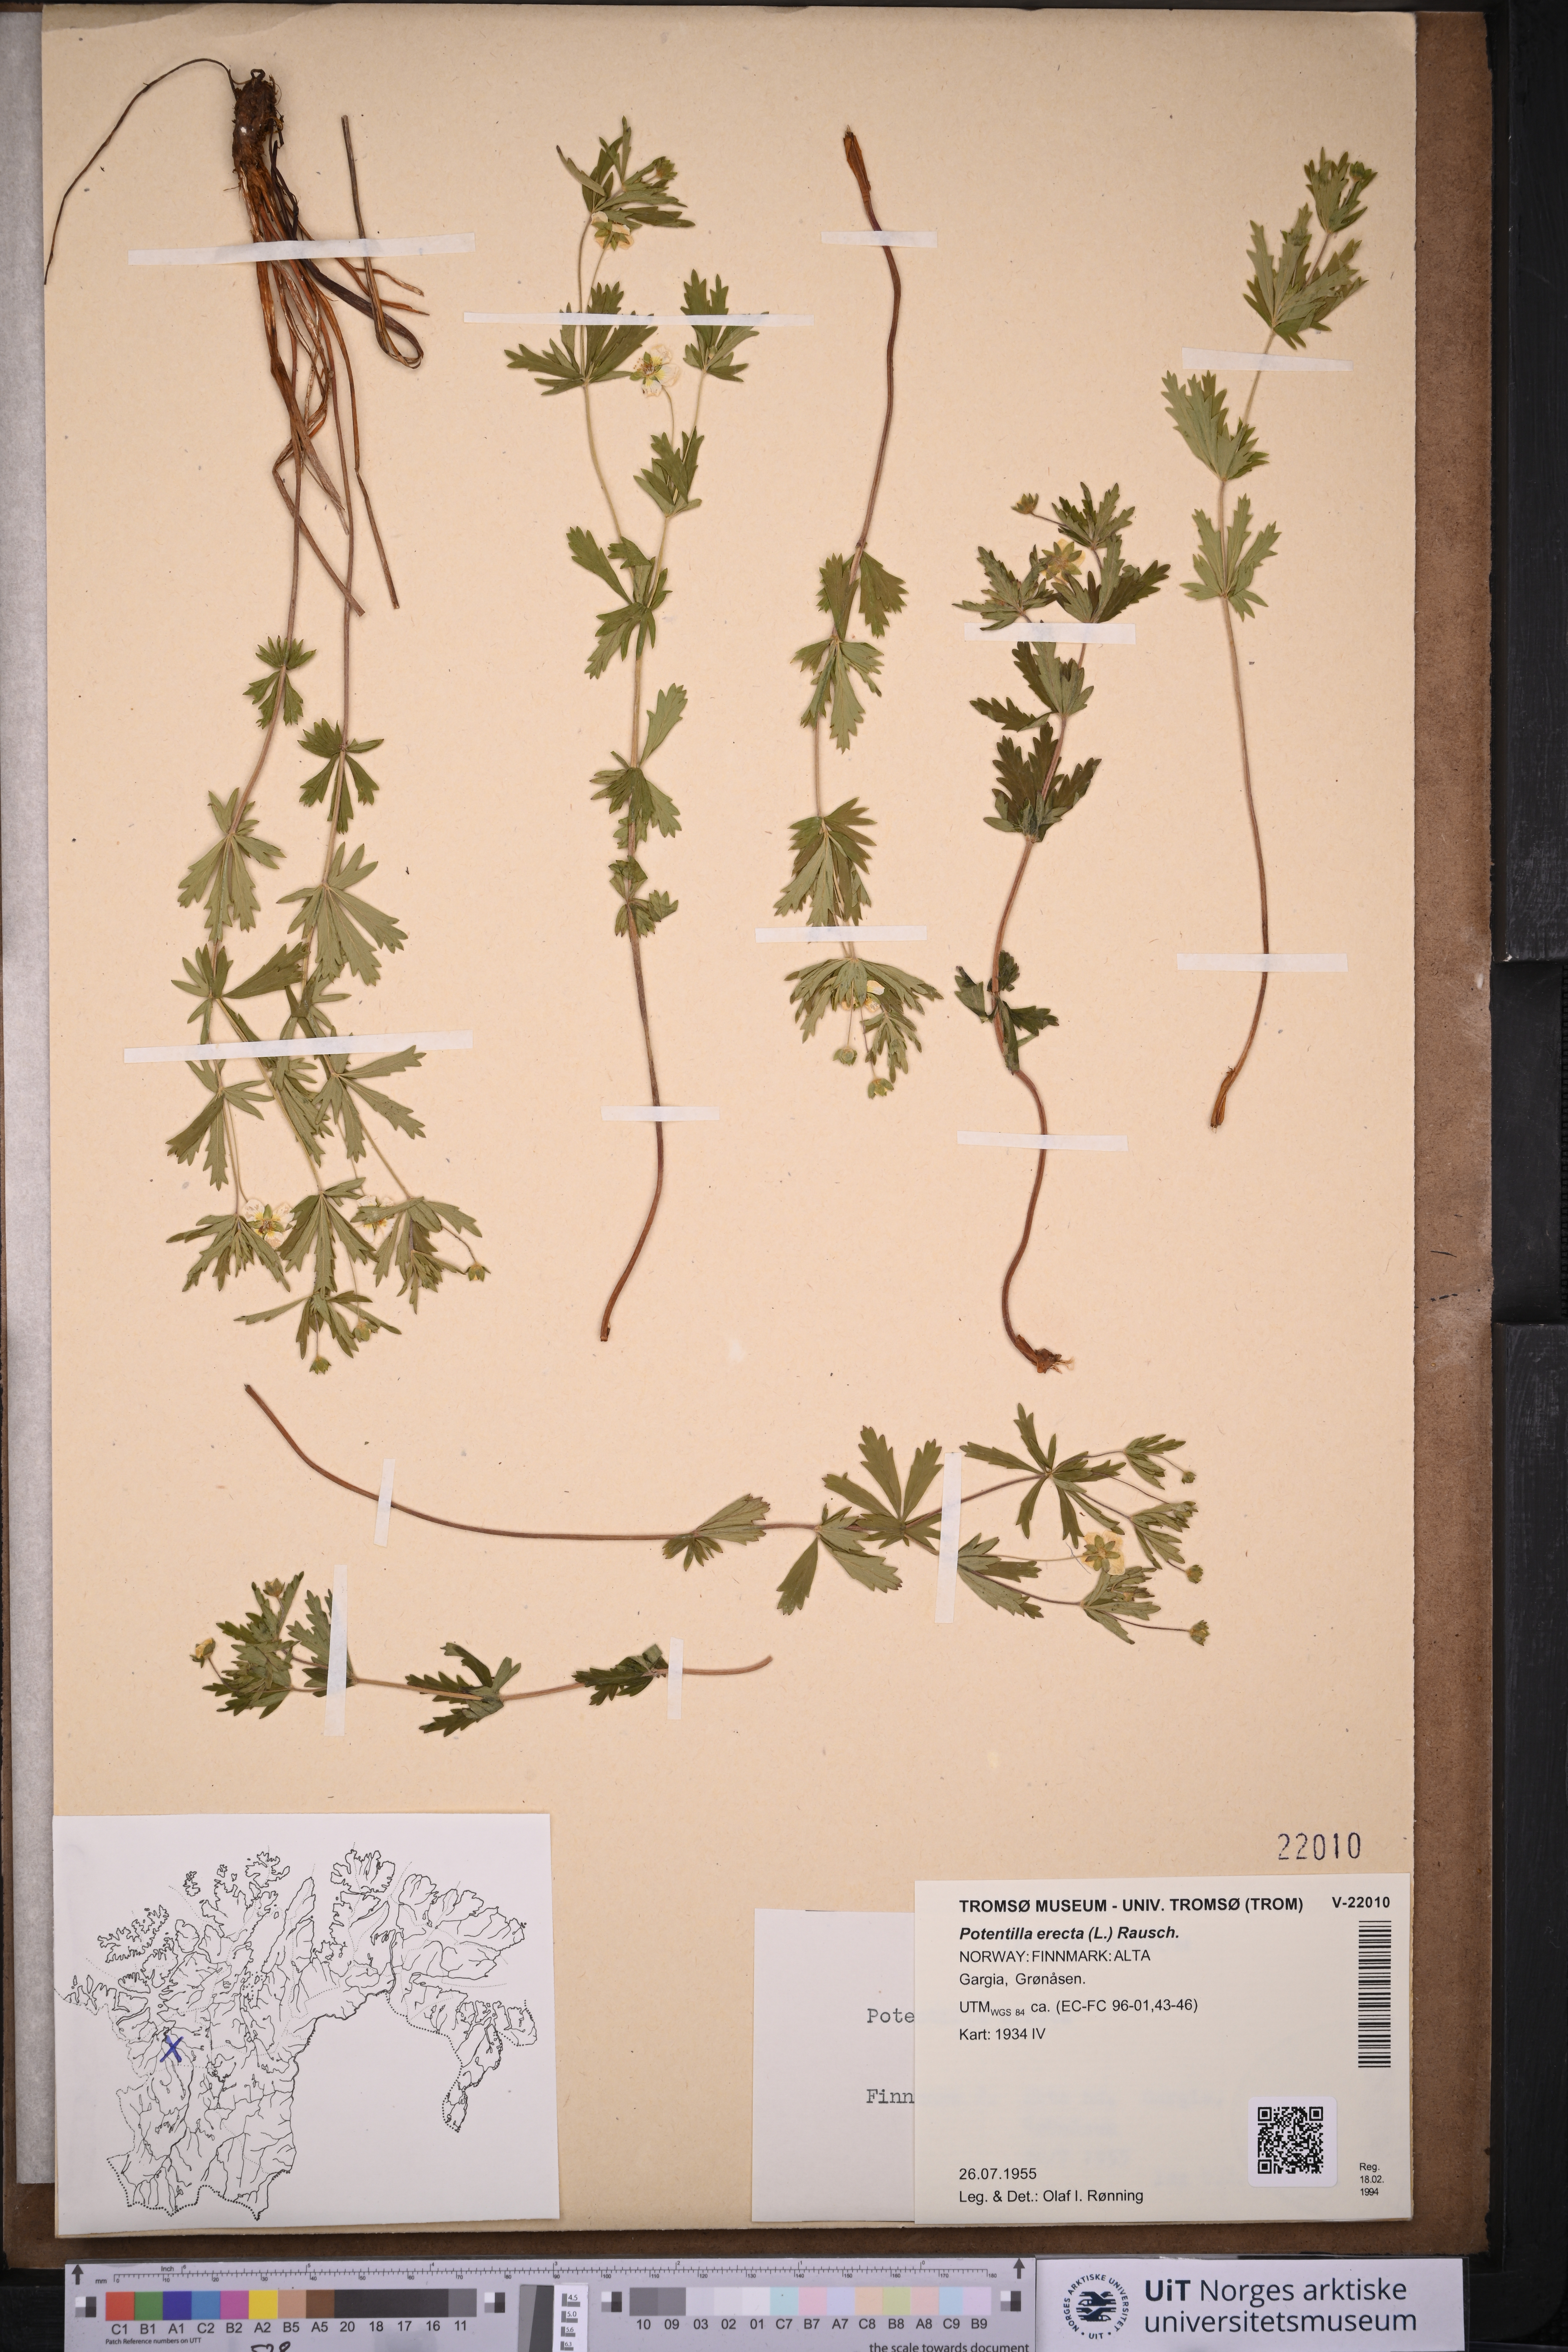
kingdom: Plantae
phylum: Tracheophyta
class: Magnoliopsida
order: Rosales
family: Rosaceae
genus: Potentilla
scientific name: Potentilla erecta
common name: Tormentil
